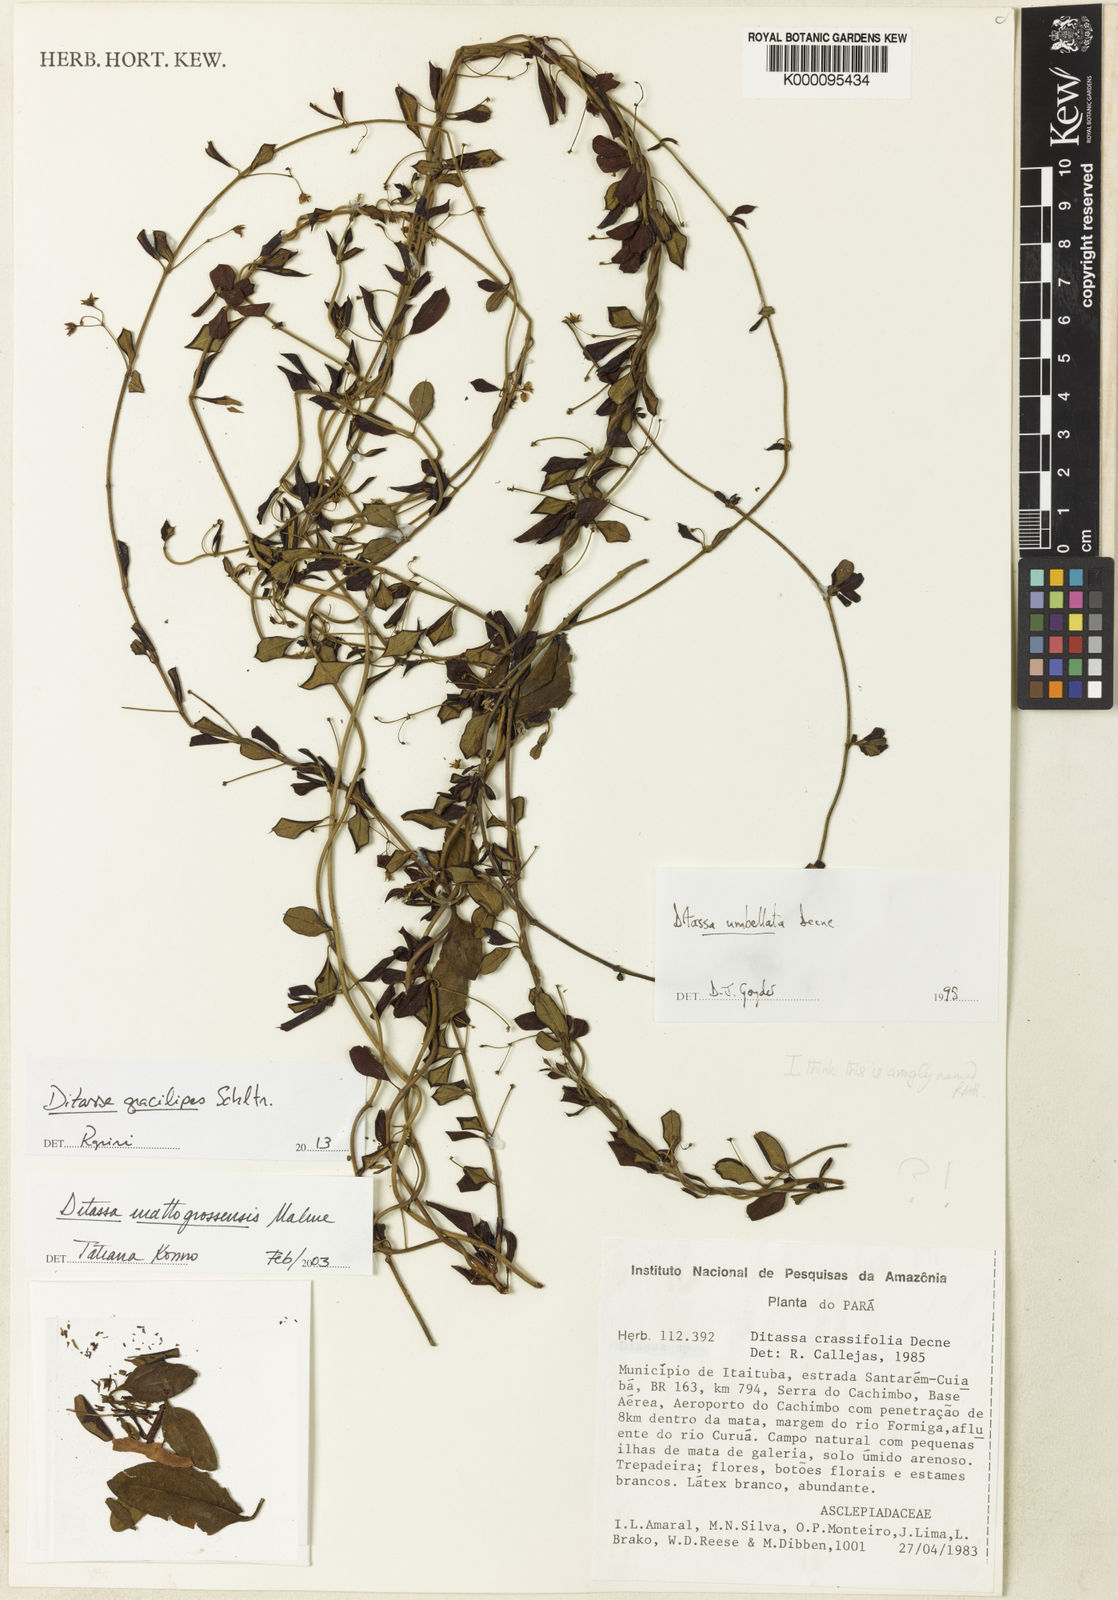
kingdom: Plantae
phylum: Tracheophyta
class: Magnoliopsida
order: Gentianales
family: Apocynaceae
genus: Ditassa
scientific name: Ditassa gracilipes
